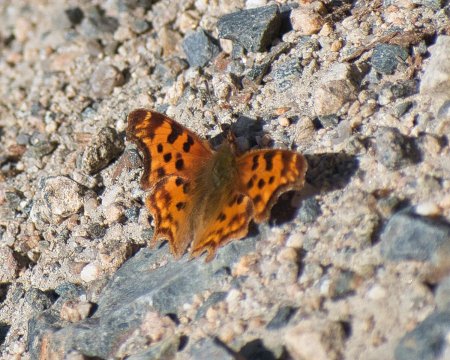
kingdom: Animalia
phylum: Arthropoda
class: Insecta
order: Lepidoptera
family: Nymphalidae
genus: Polygonia
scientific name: Polygonia satyrus
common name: Satyr Comma
